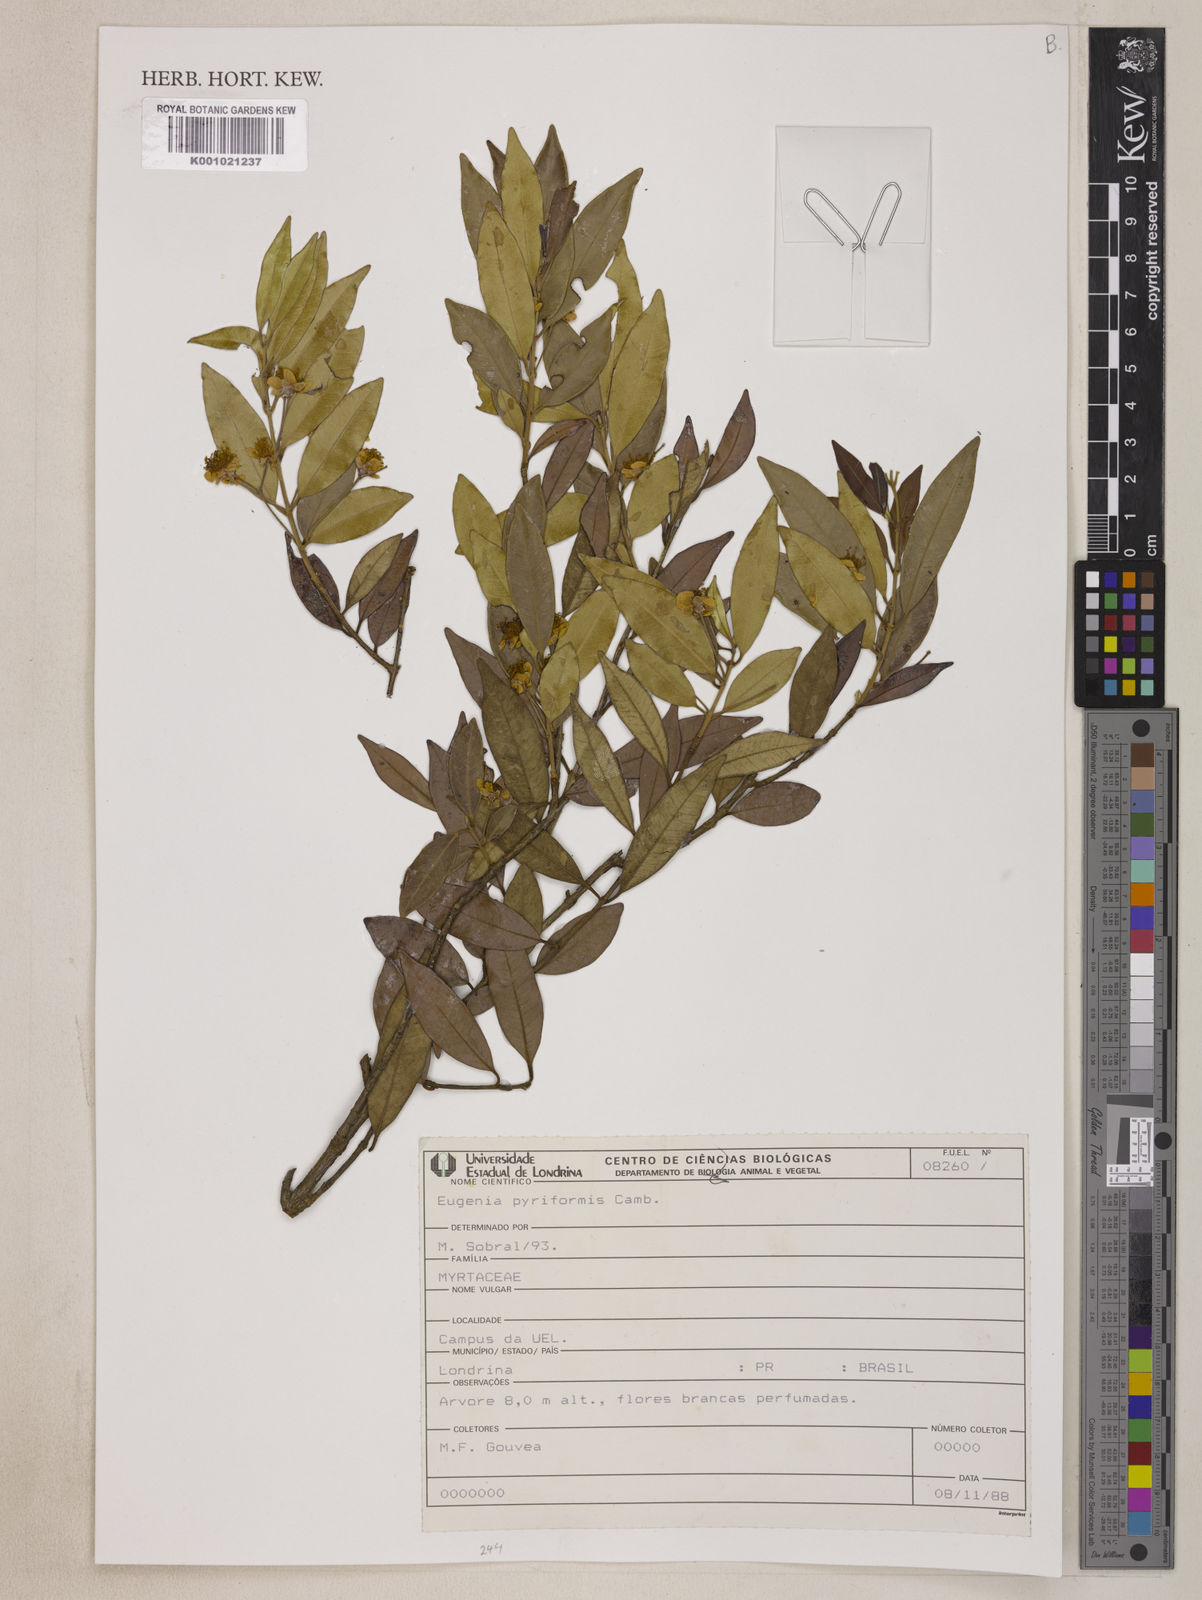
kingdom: Plantae
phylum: Tracheophyta
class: Magnoliopsida
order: Myrtales
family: Myrtaceae
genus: Eugenia
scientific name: Eugenia pyriformis
